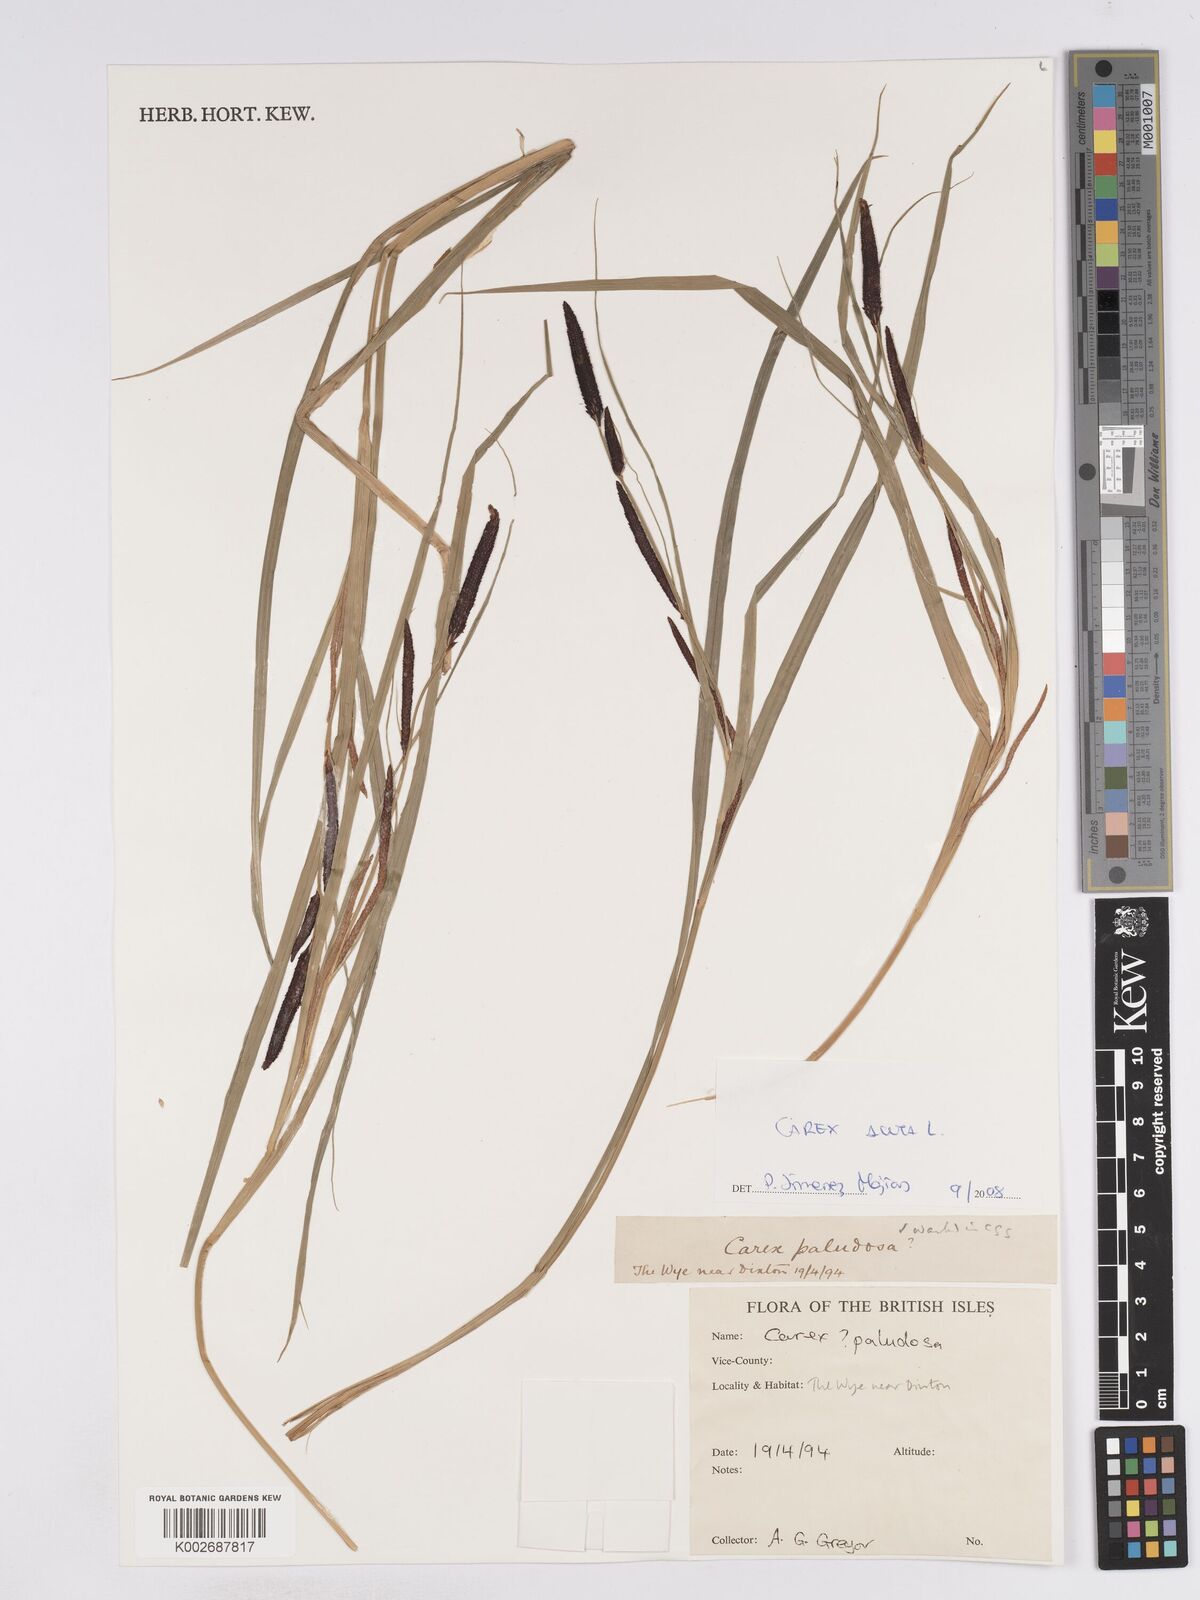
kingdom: Plantae
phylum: Tracheophyta
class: Liliopsida
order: Poales
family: Cyperaceae
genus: Carex
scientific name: Carex acuta
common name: Slender tufted-sedge
